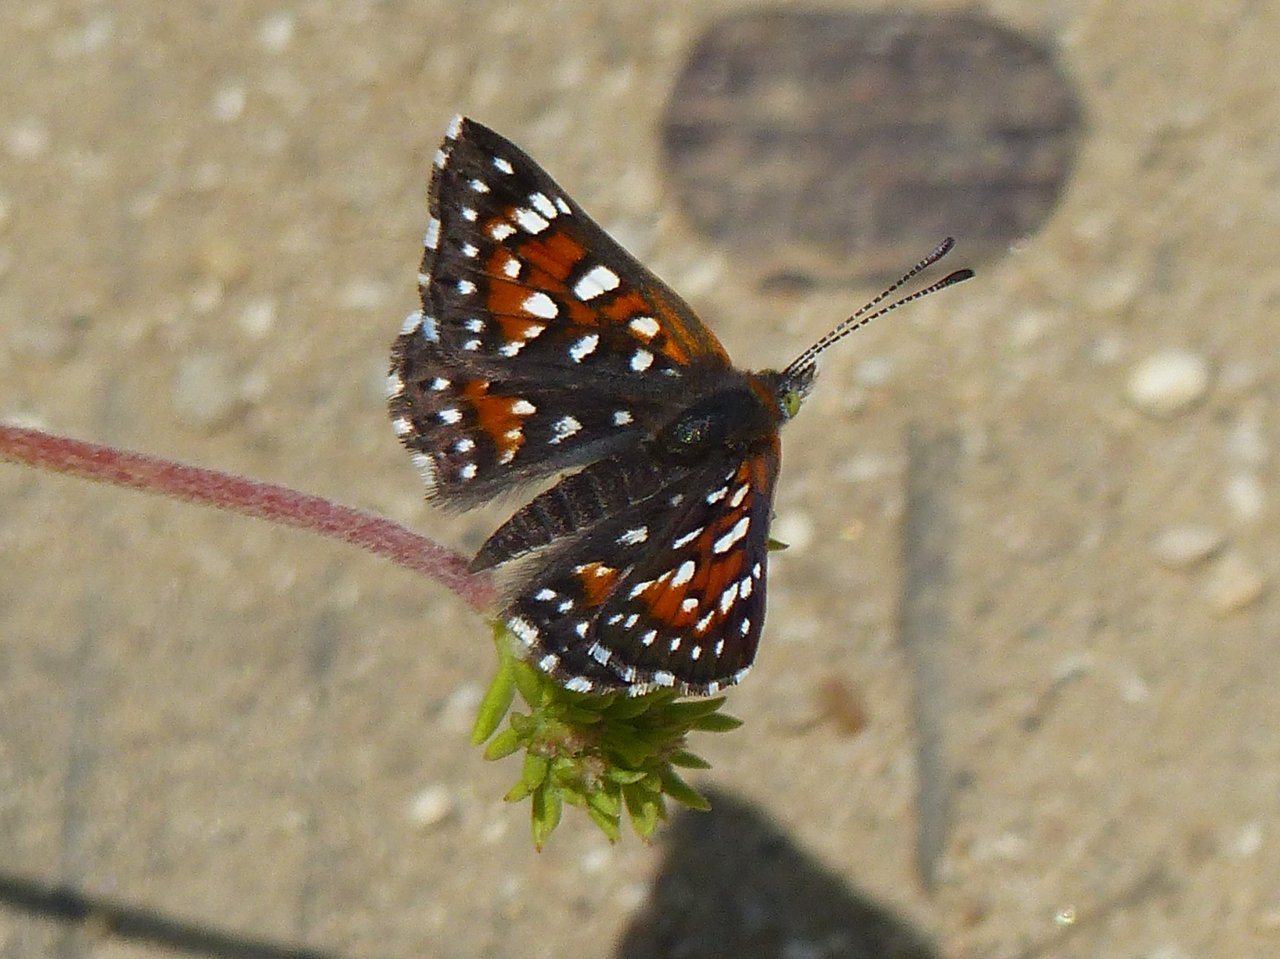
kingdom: Animalia
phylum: Arthropoda
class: Insecta
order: Lepidoptera
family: Riodinidae
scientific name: Riodinidae
